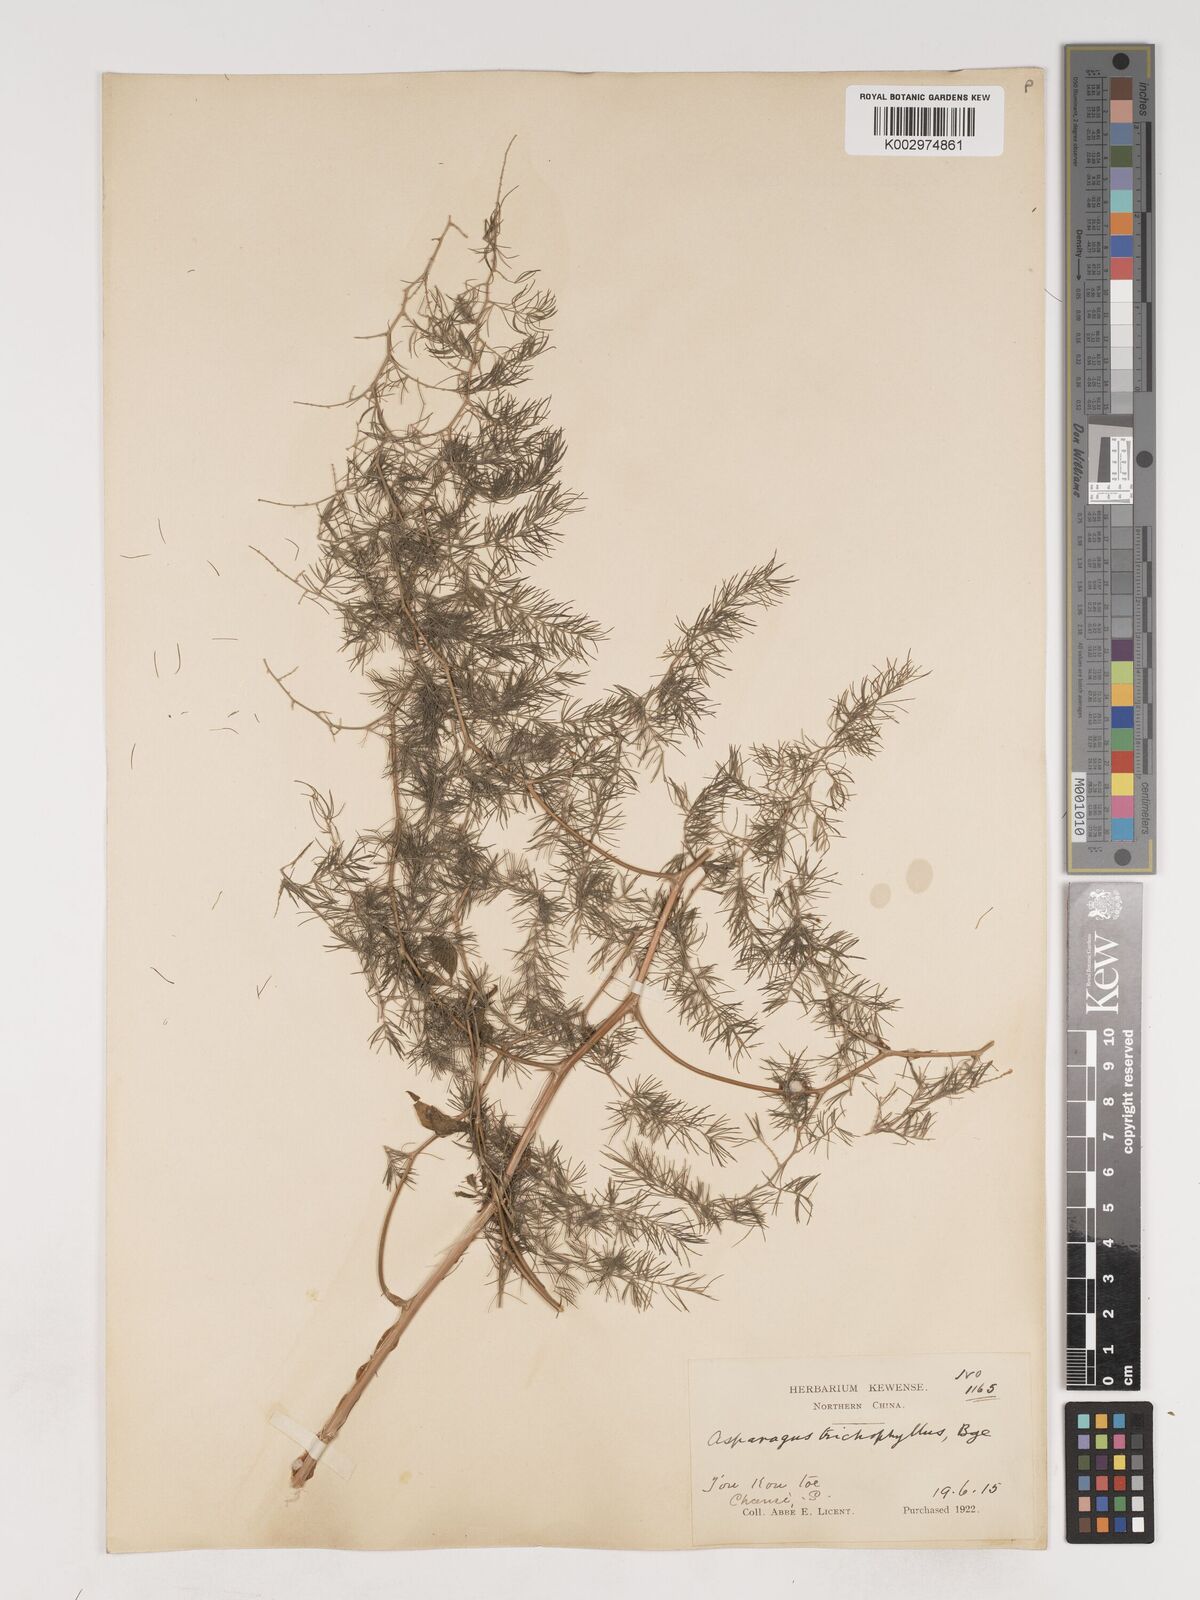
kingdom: Plantae
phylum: Tracheophyta
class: Liliopsida
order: Asparagales
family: Asparagaceae
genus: Asparagus
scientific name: Asparagus trichophyllus
